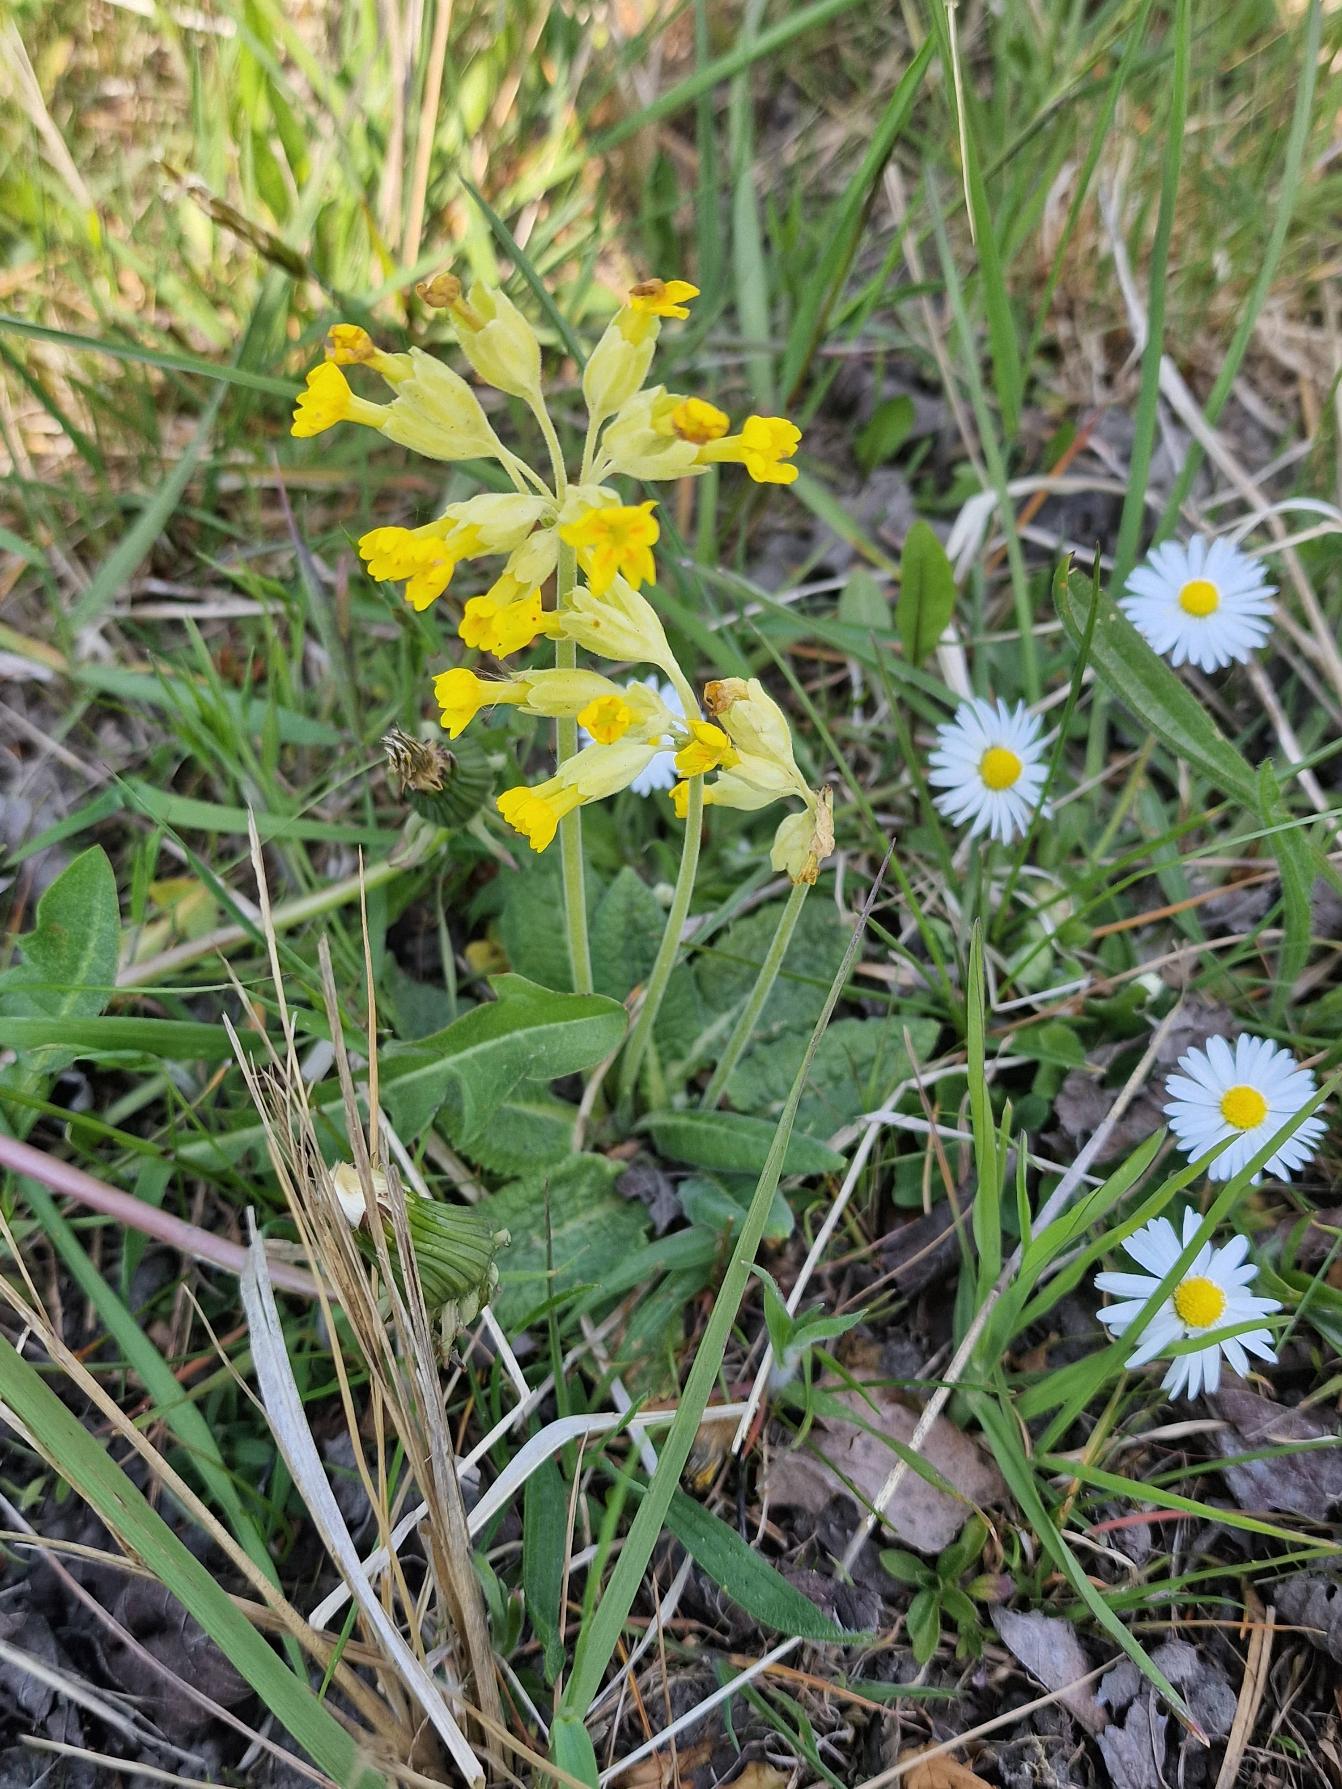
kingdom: Plantae
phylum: Tracheophyta
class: Magnoliopsida
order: Ericales
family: Primulaceae
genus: Primula
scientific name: Primula veris
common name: Hulkravet kodriver
